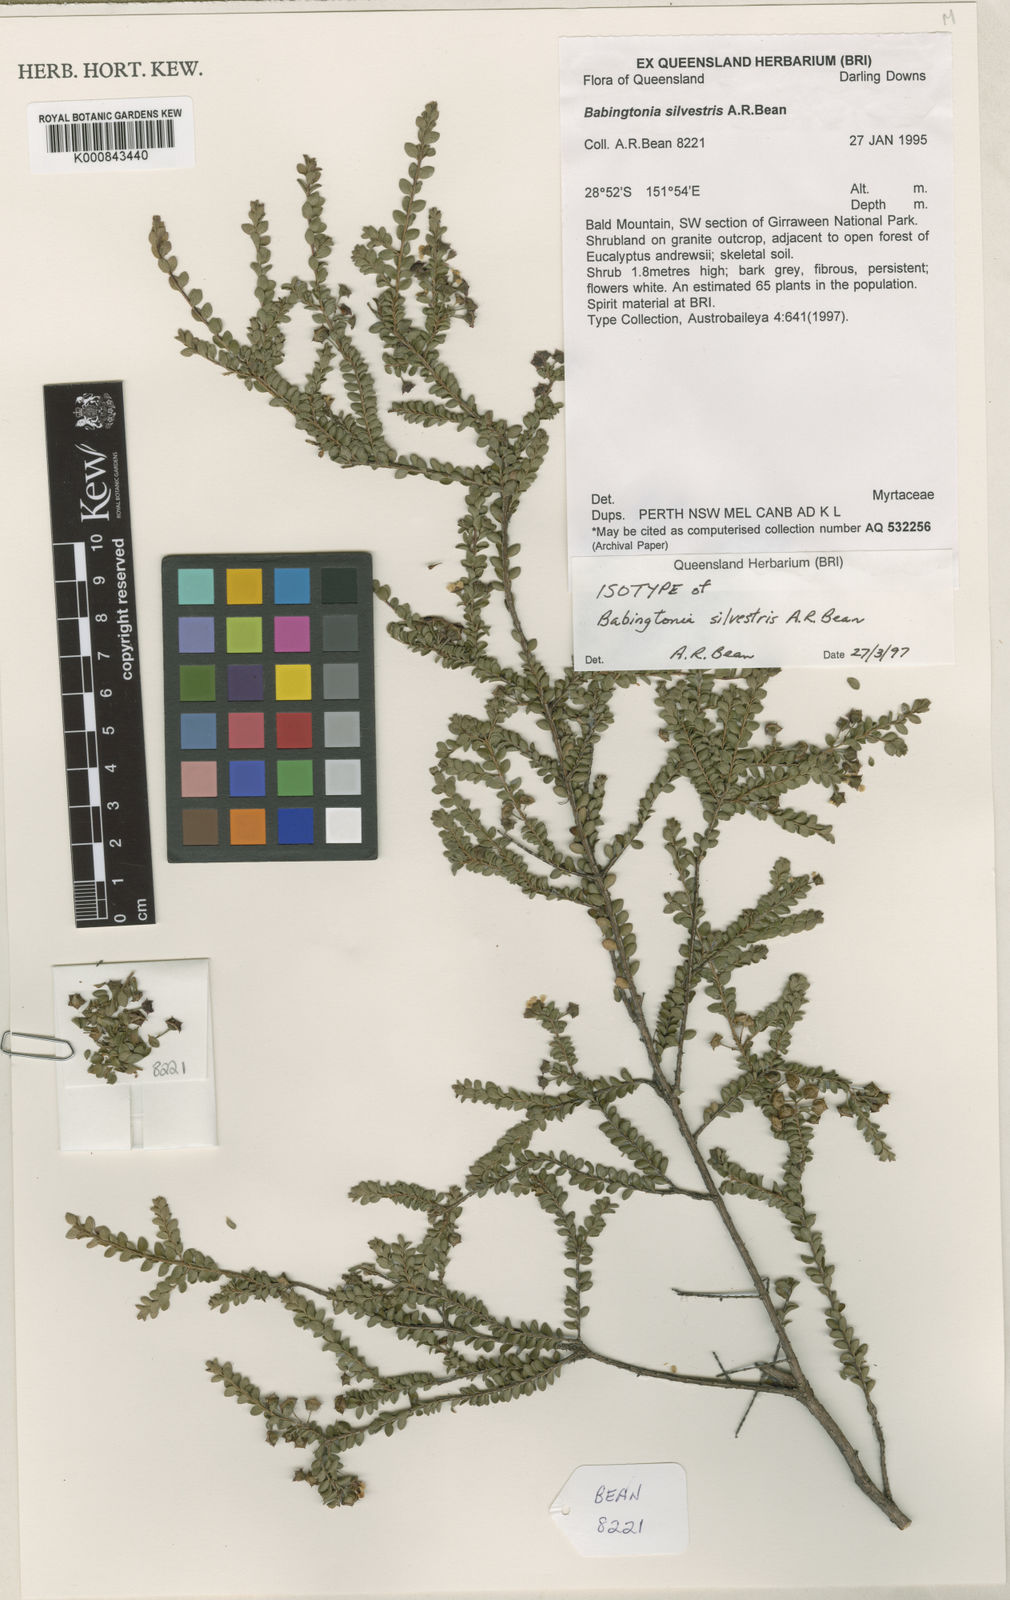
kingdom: Plantae
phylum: Tracheophyta
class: Magnoliopsida
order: Myrtales
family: Myrtaceae
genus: Kardomia
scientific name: Kardomia silvestris
